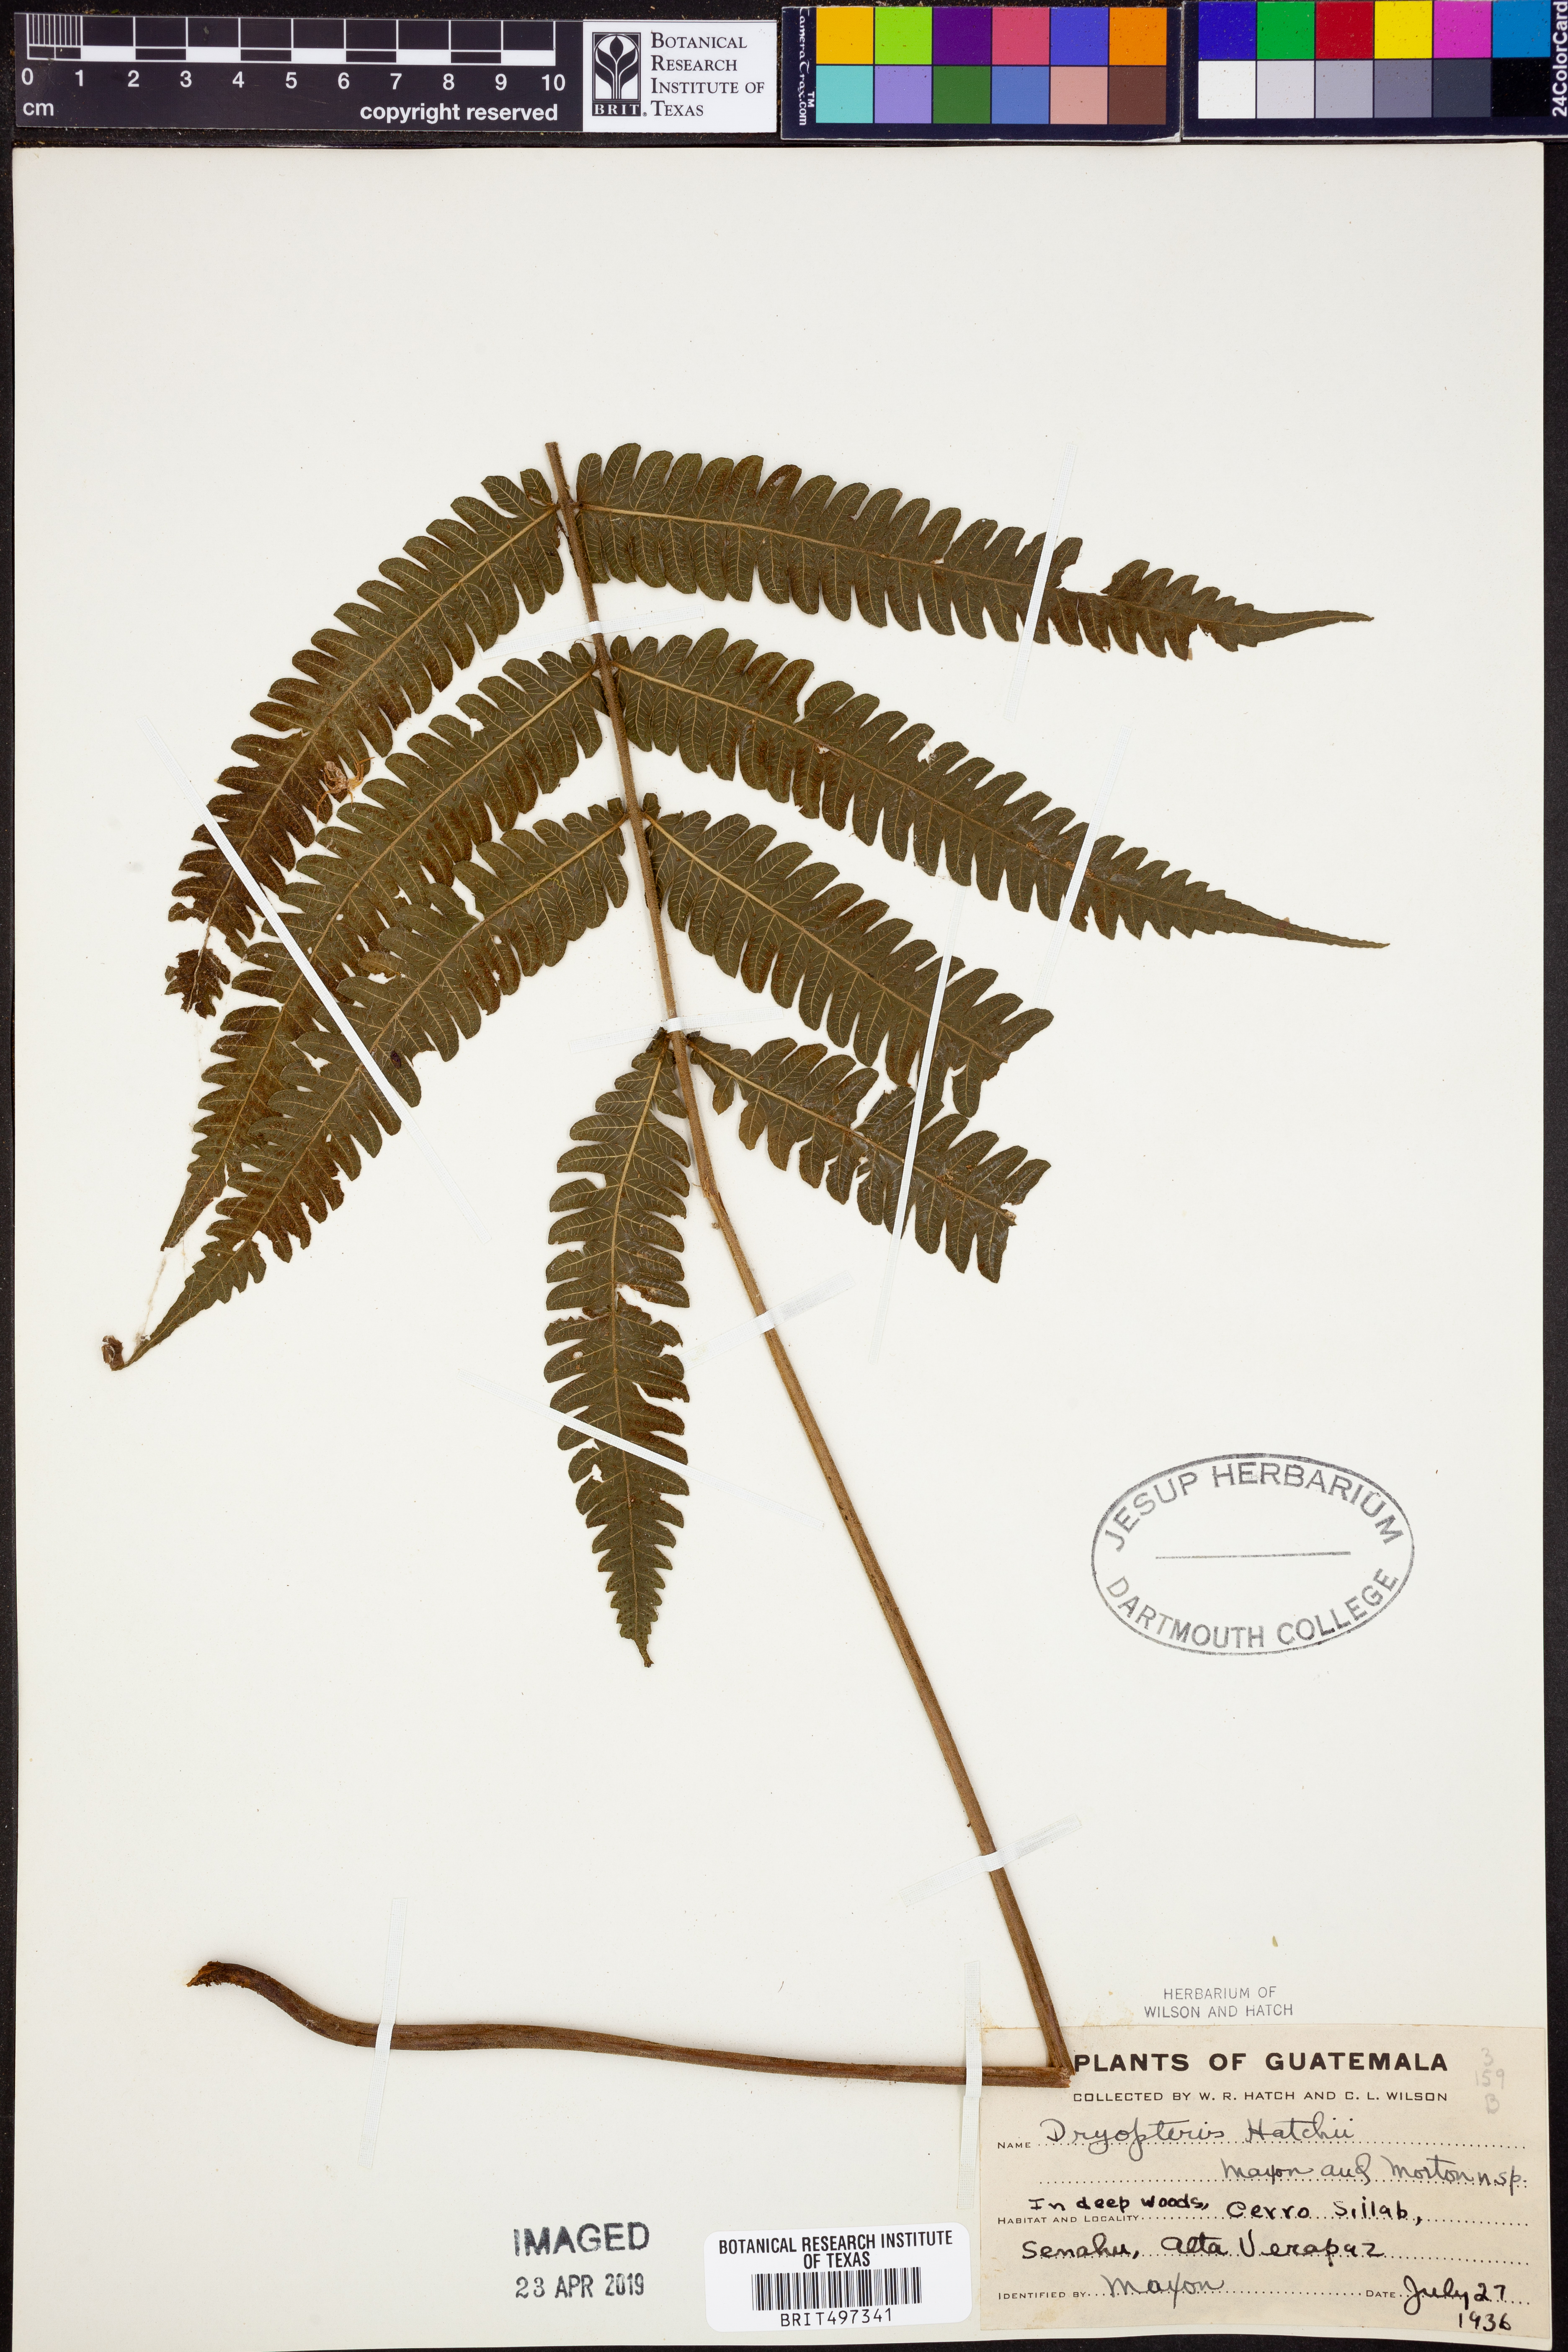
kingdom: Plantae
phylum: Tracheophyta
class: Polypodiopsida
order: Polypodiales
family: Thelypteridaceae
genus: Metathelypteris
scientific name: Metathelypteris hattori
